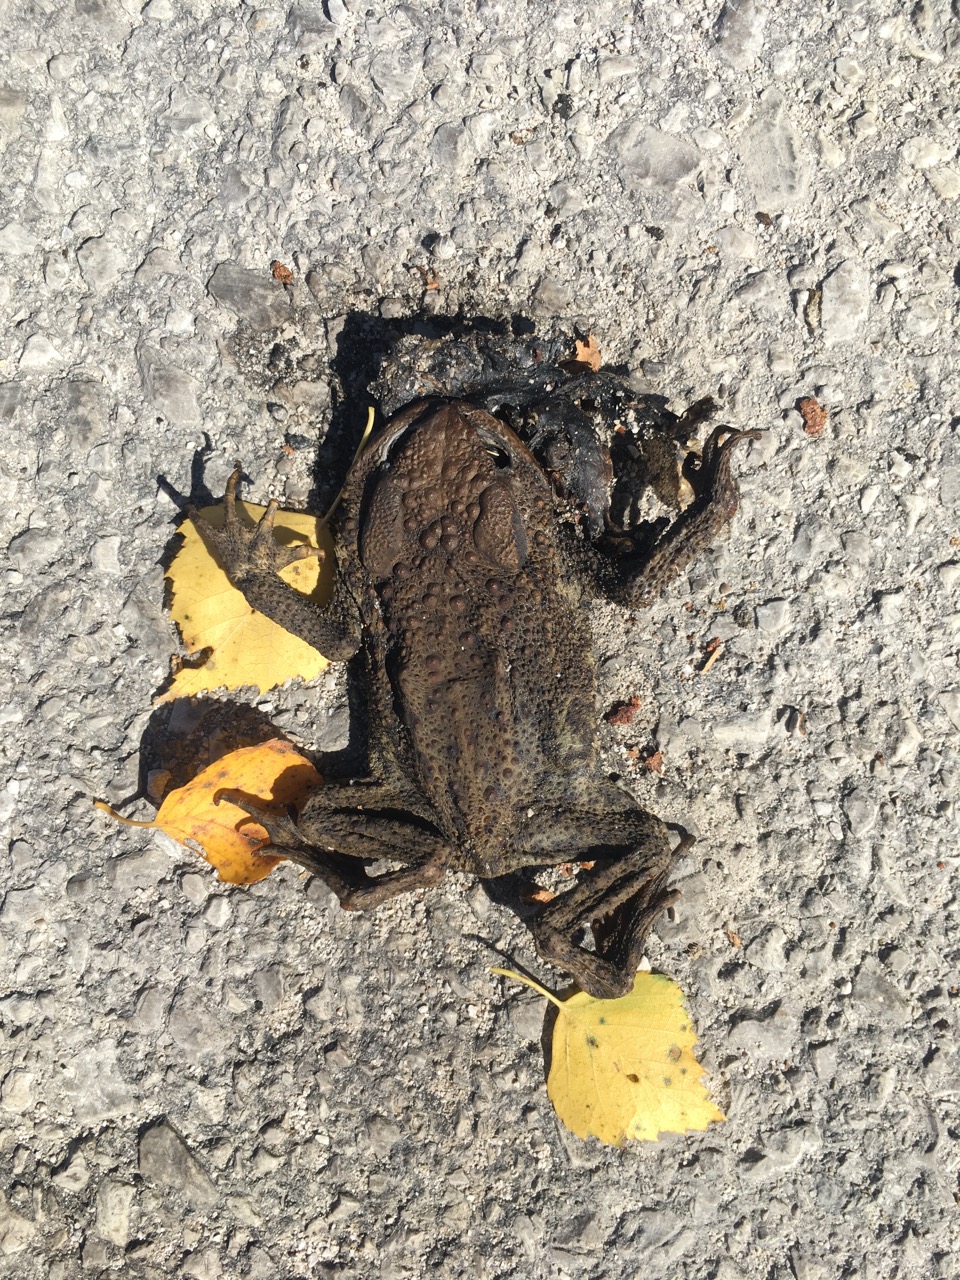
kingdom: Animalia
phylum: Chordata
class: Amphibia
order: Anura
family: Bufonidae
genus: Bufo
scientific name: Bufo bufo
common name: Common toad
